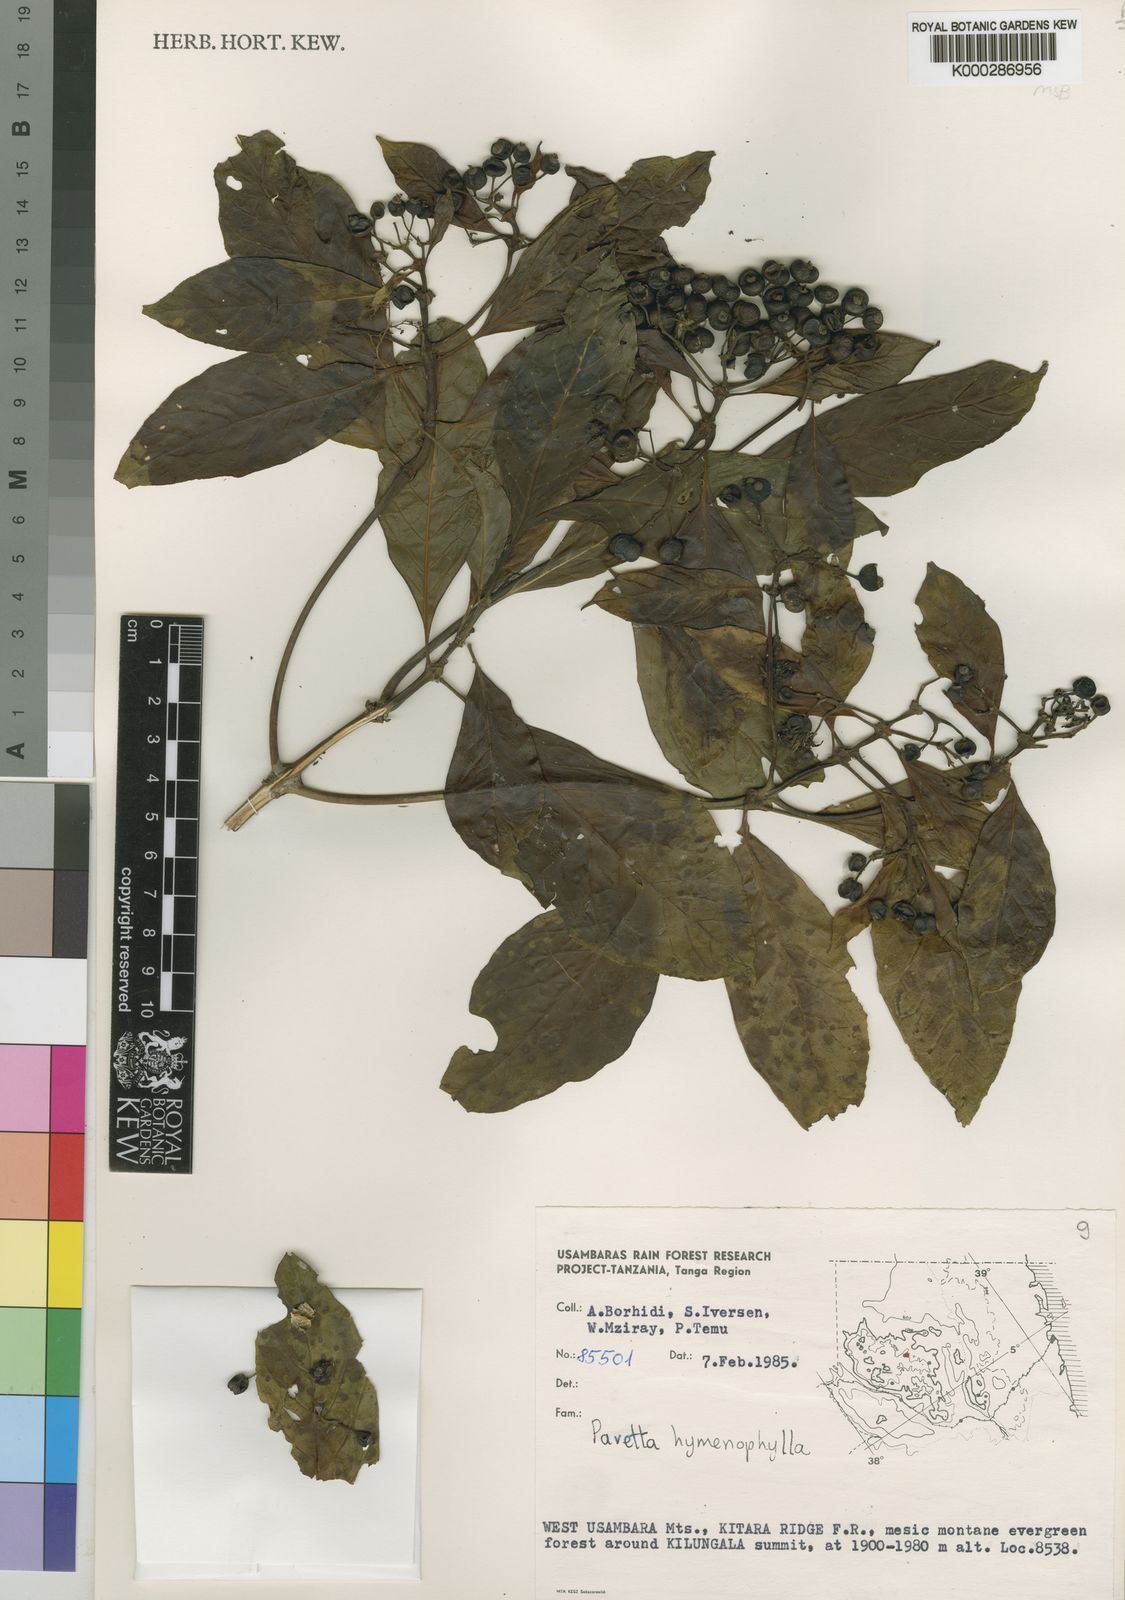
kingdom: Plantae
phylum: Tracheophyta
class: Magnoliopsida
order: Gentianales
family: Rubiaceae
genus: Pavetta
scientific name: Pavetta hymenophylla
